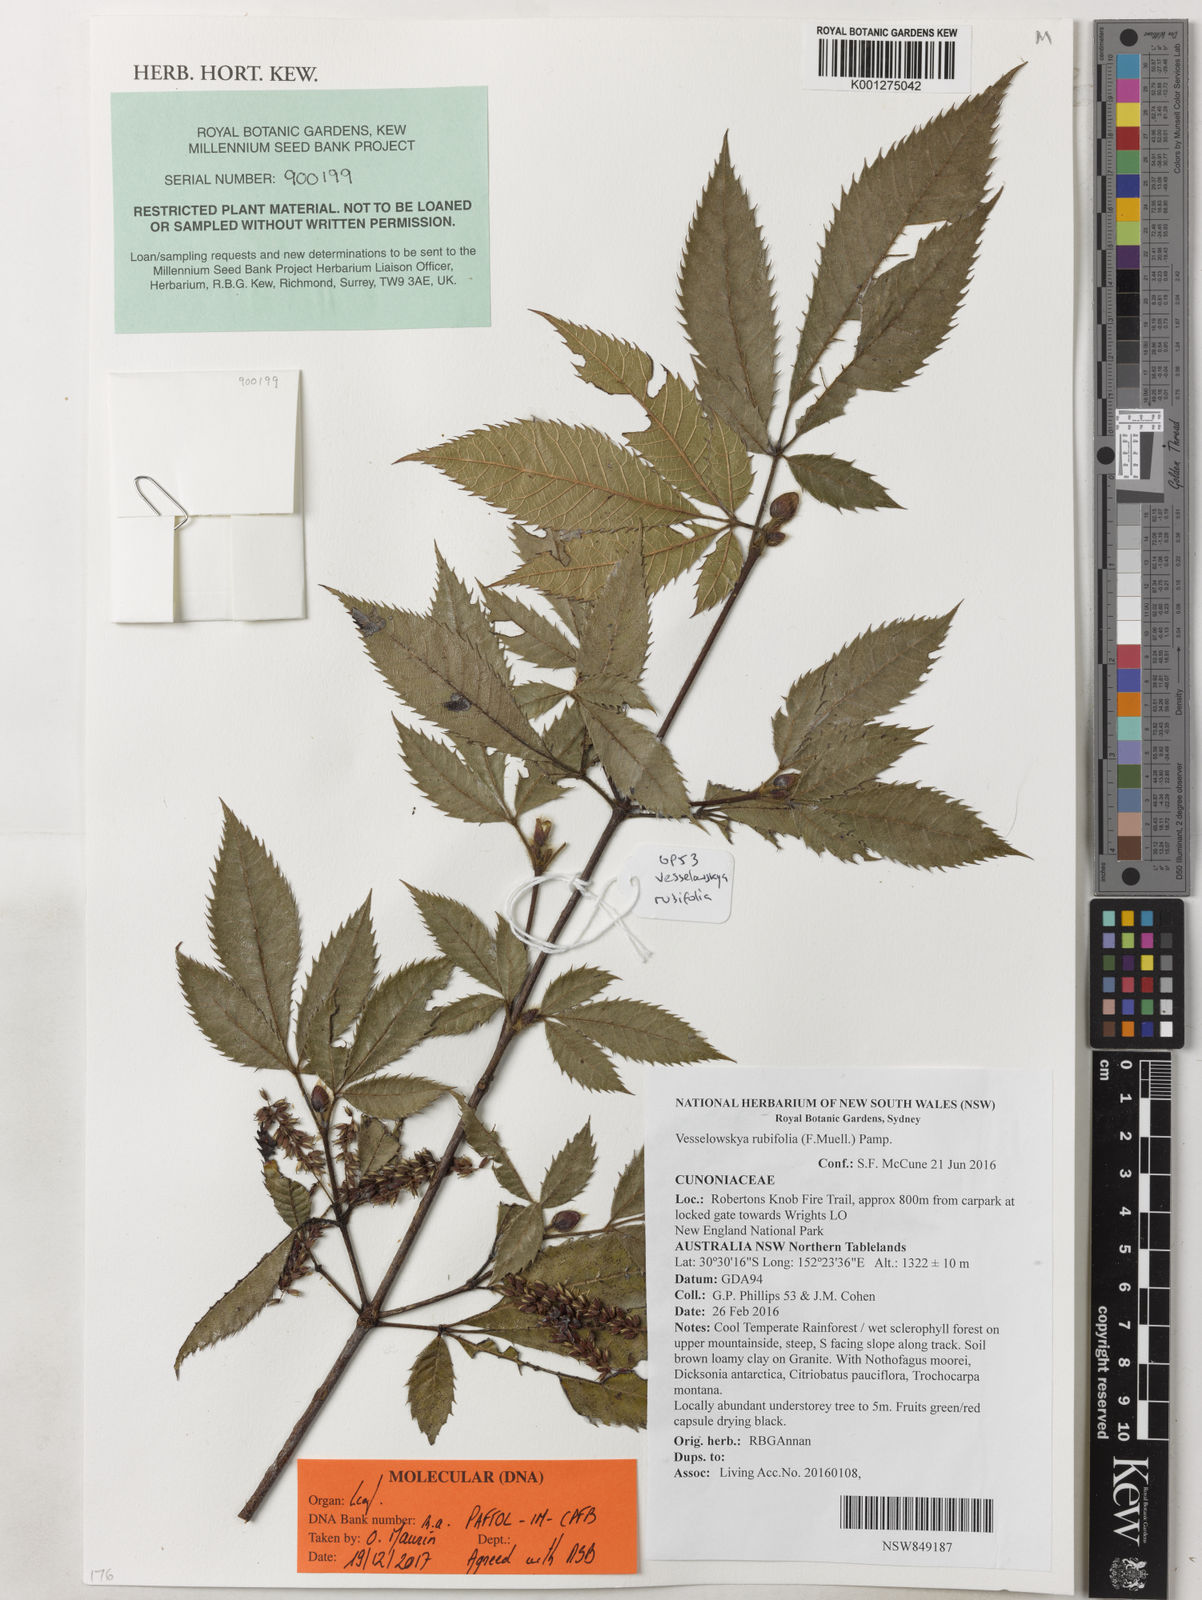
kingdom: Plantae
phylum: Tracheophyta
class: Magnoliopsida
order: Oxalidales
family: Cunoniaceae
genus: Vesselowskya
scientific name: Vesselowskya rubifolia
